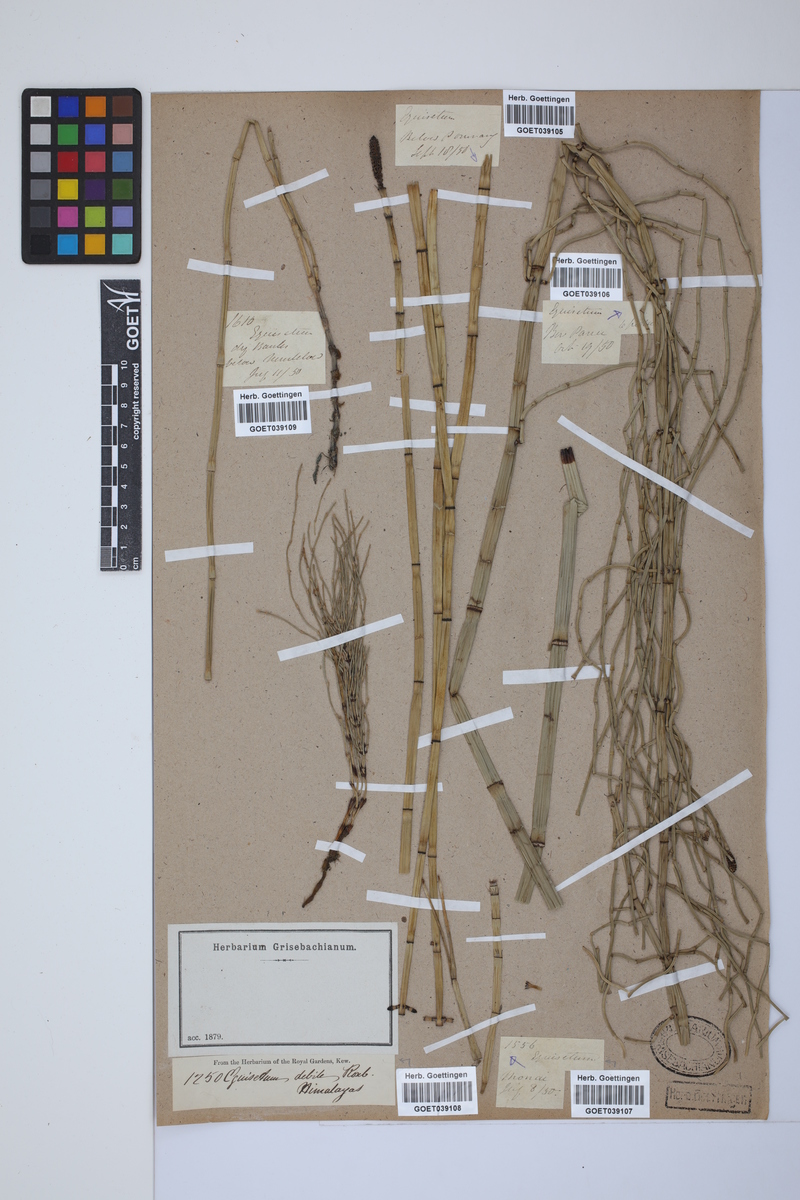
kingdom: Plantae
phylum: Tracheophyta
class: Polypodiopsida
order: Equisetales
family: Equisetaceae
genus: Equisetum
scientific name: Equisetum ramosissimum
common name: Branched horsetail
